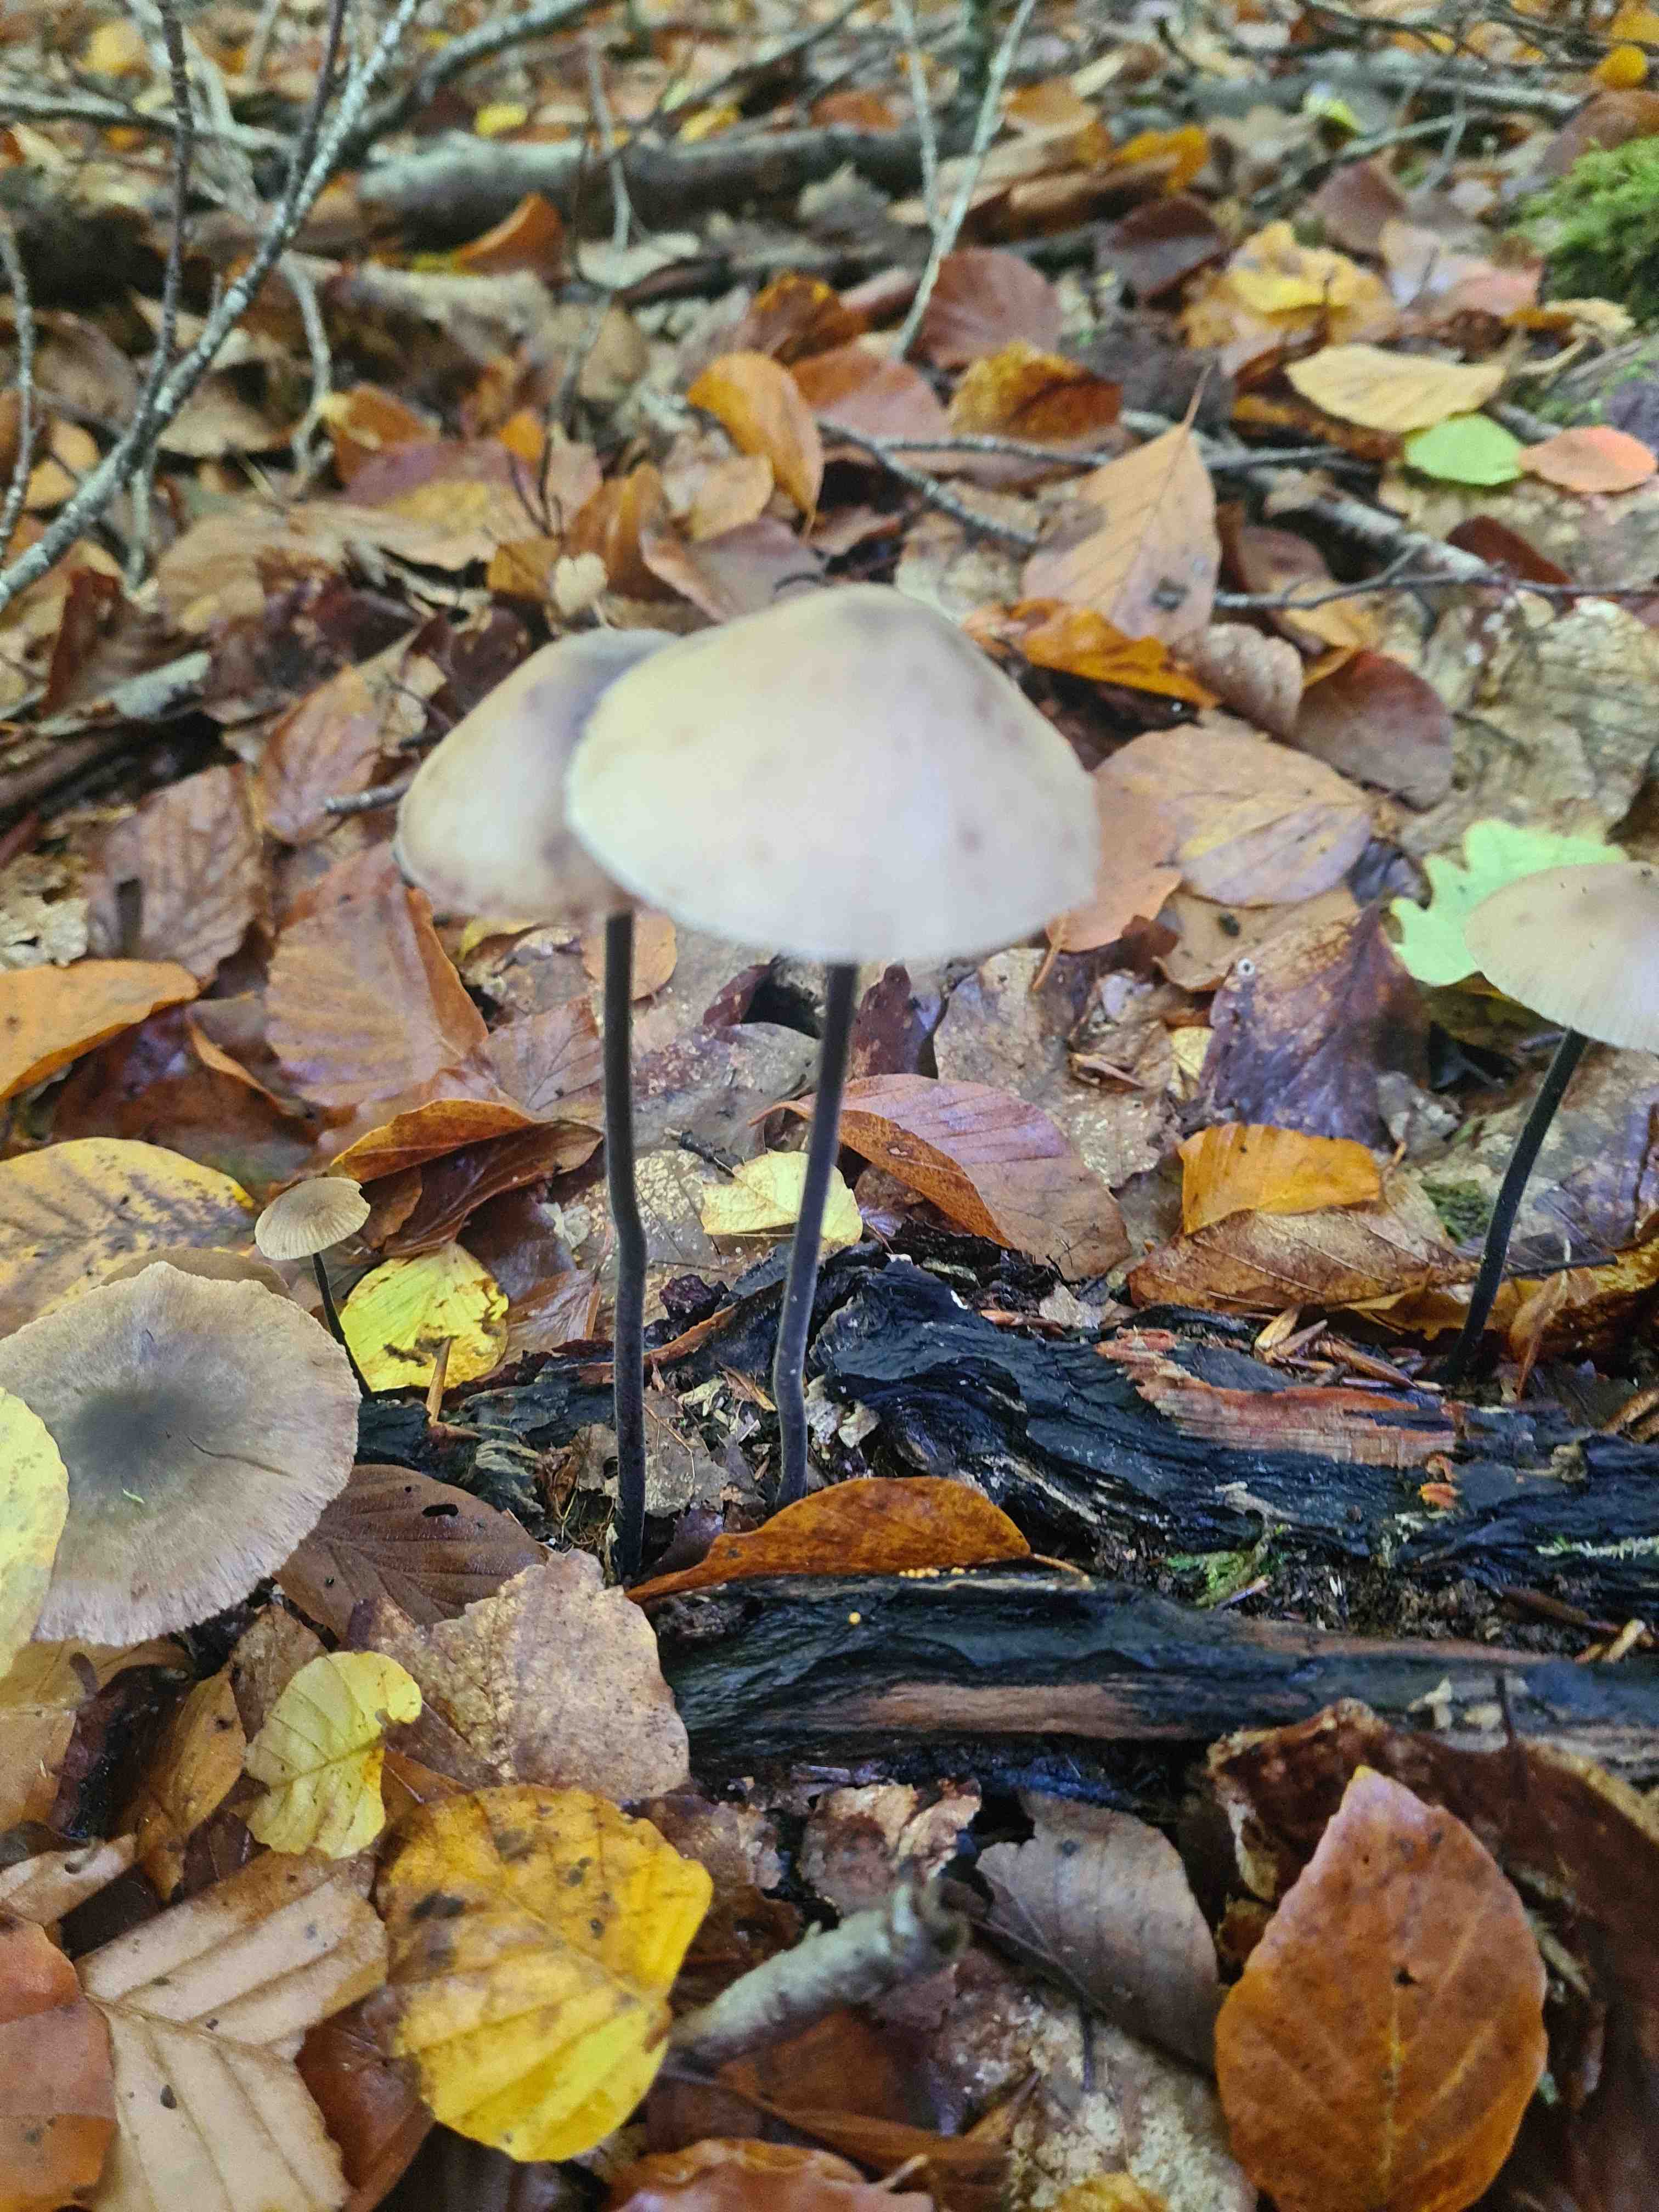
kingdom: Fungi
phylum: Basidiomycota
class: Agaricomycetes
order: Agaricales
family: Omphalotaceae
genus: Mycetinis
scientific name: Mycetinis alliaceus
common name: stor løghat
